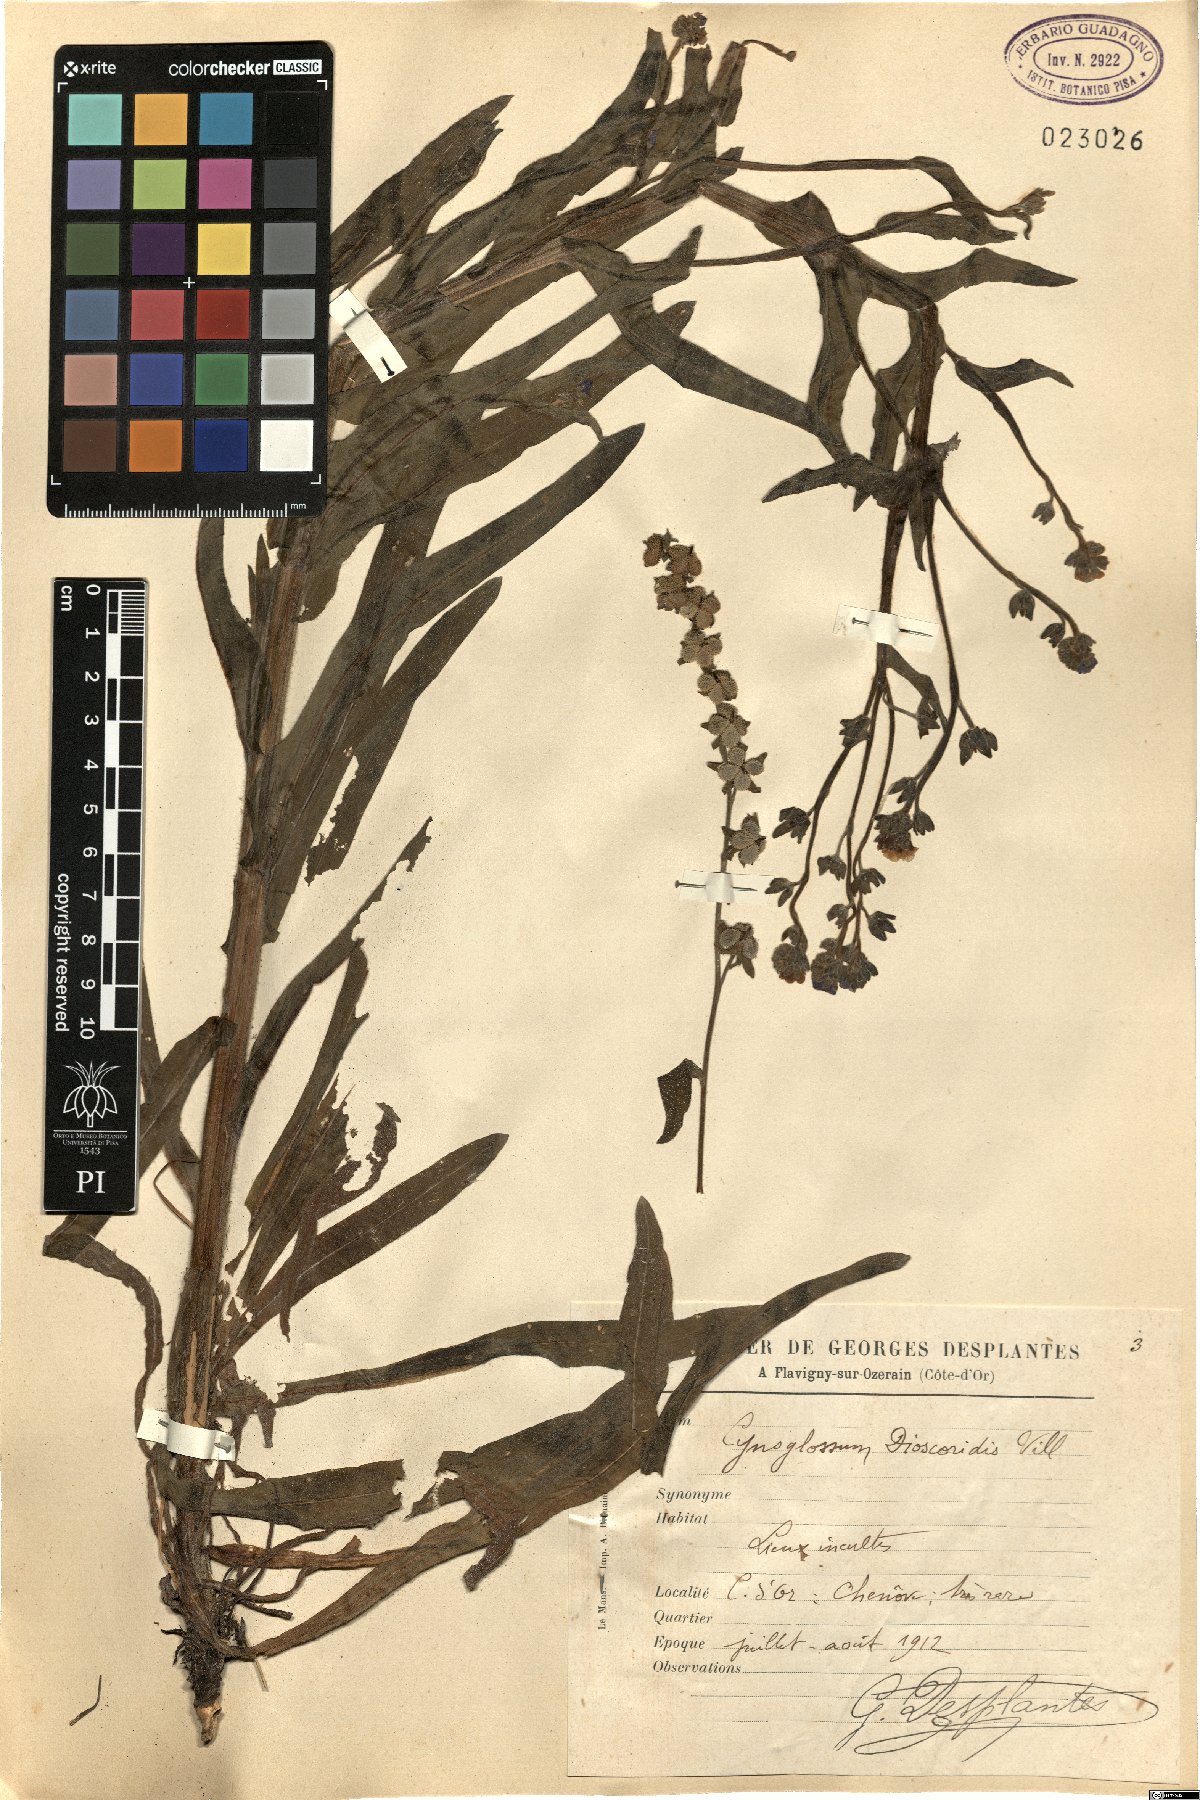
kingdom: Plantae
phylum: Tracheophyta
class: Magnoliopsida
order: Boraginales
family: Boraginaceae
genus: Cynoglossum
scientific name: Cynoglossum dioscoridis
